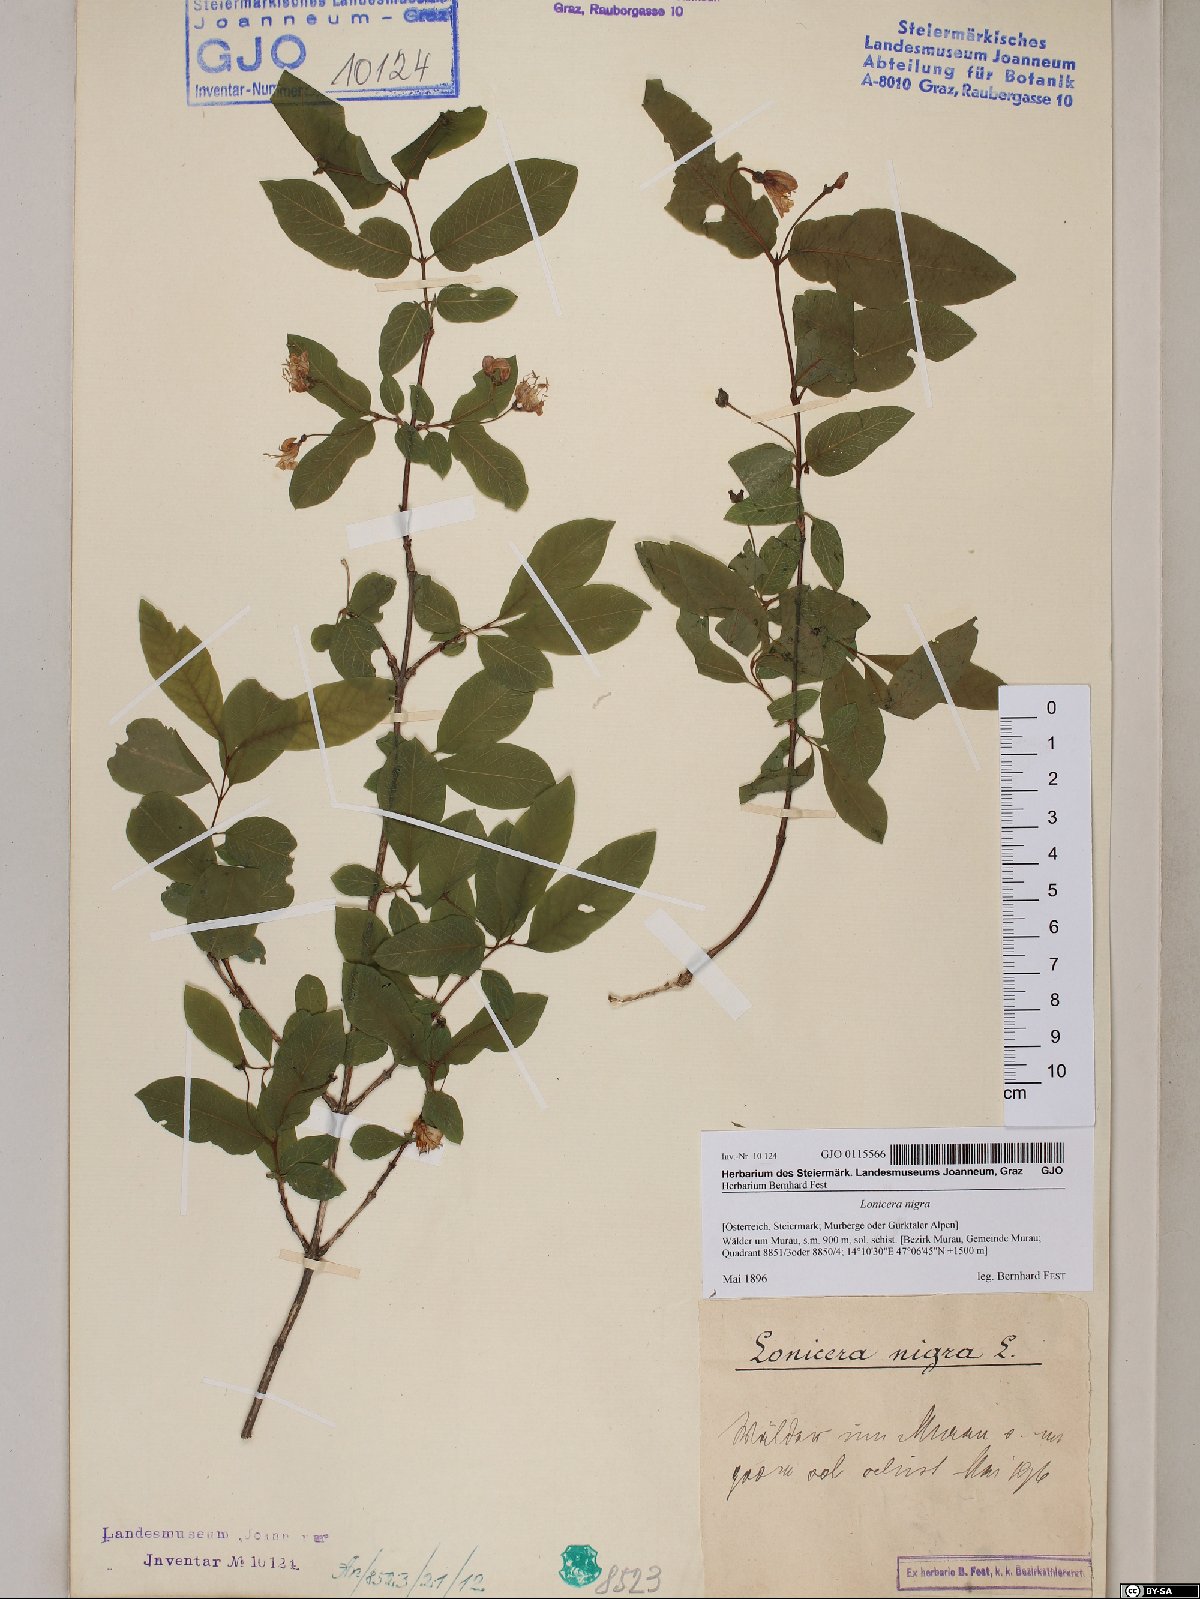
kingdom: Plantae
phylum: Tracheophyta
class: Magnoliopsida
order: Dipsacales
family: Caprifoliaceae
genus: Lonicera
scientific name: Lonicera nigra
